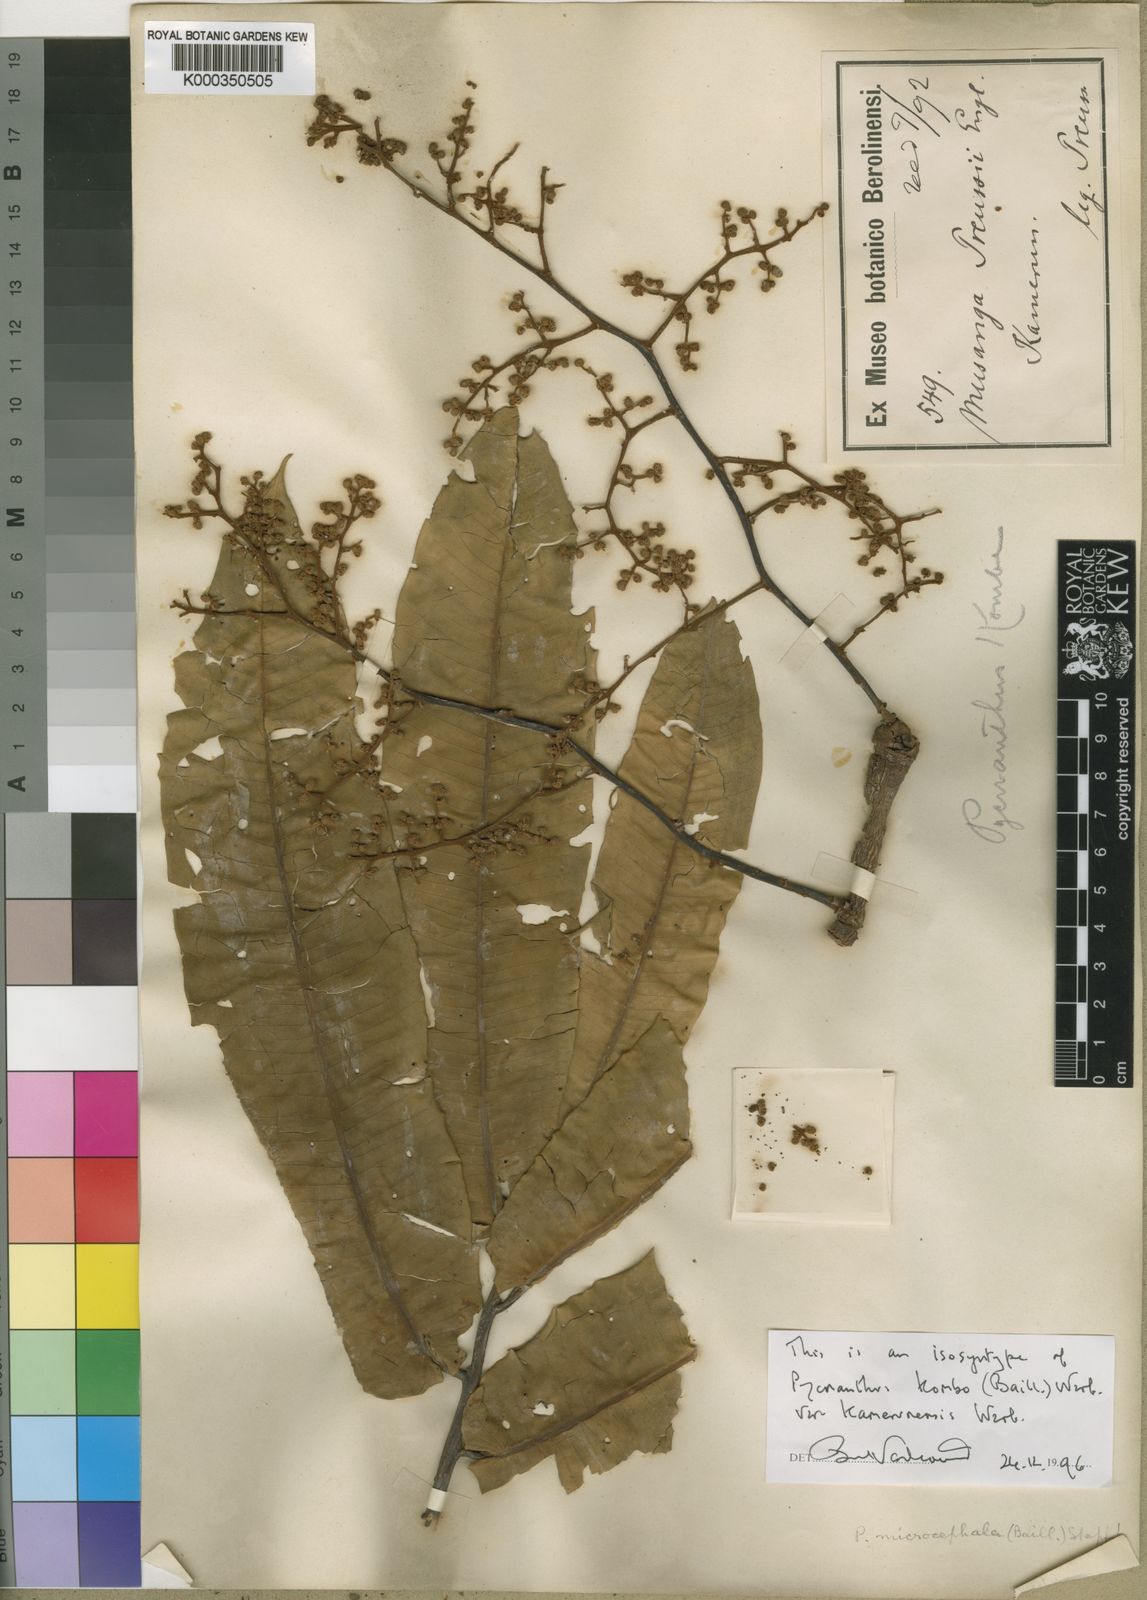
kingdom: Plantae
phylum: Tracheophyta
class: Magnoliopsida
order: Magnoliales
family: Myristicaceae
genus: Pycnanthus
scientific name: Pycnanthus microcephalus
